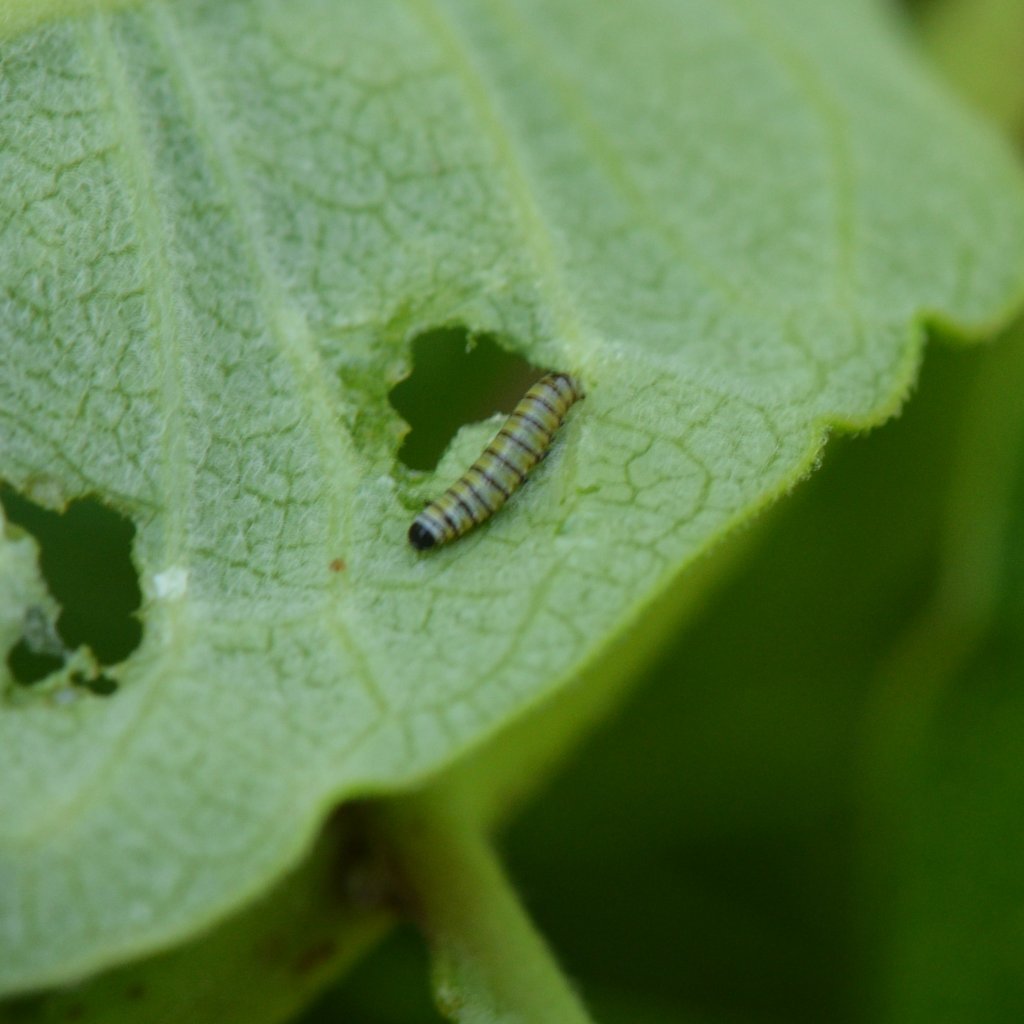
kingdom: Animalia
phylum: Arthropoda
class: Insecta
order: Lepidoptera
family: Nymphalidae
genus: Danaus
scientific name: Danaus plexippus
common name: Monarch
